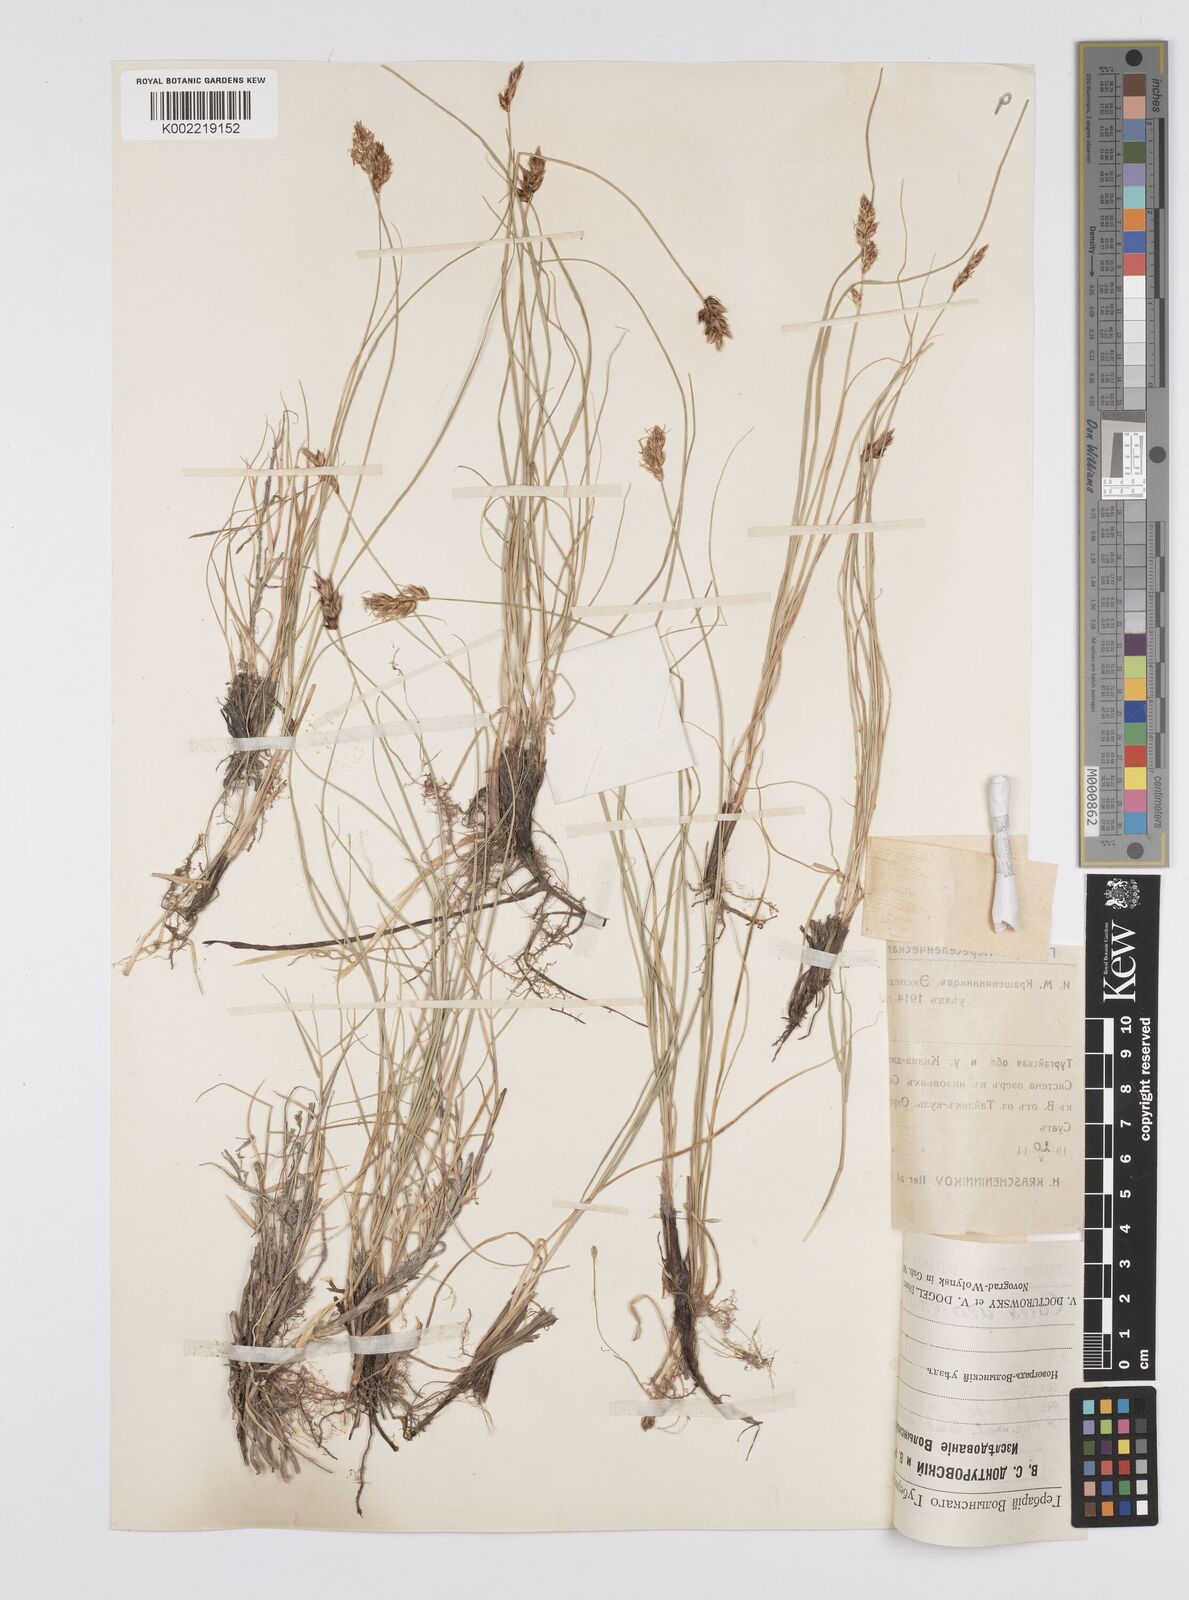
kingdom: Plantae
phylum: Tracheophyta
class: Liliopsida
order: Poales
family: Cyperaceae
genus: Carex
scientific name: Carex stenophylla
